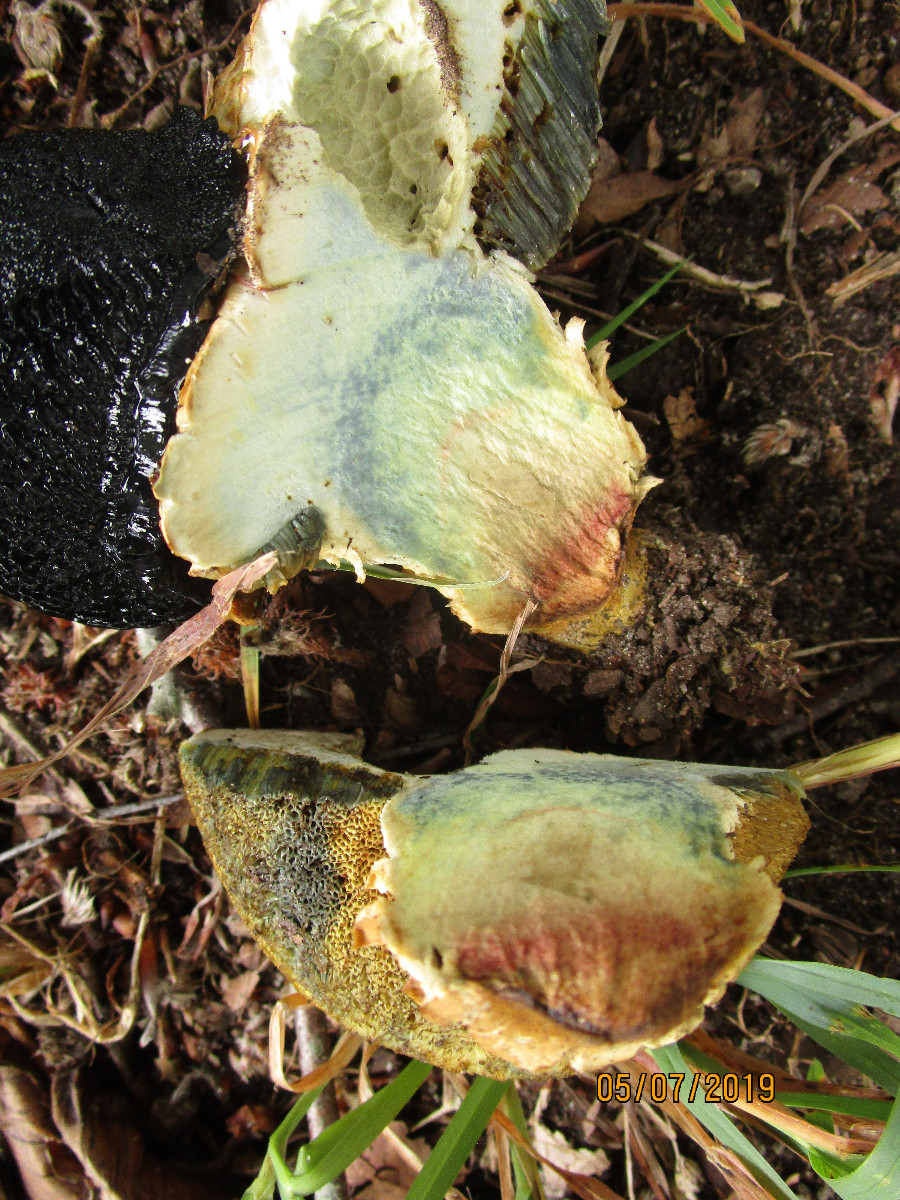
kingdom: Fungi
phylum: Basidiomycota
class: Agaricomycetes
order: Boletales
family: Boletaceae
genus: Caloboletus
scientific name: Caloboletus radicans
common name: rod-rørhat
